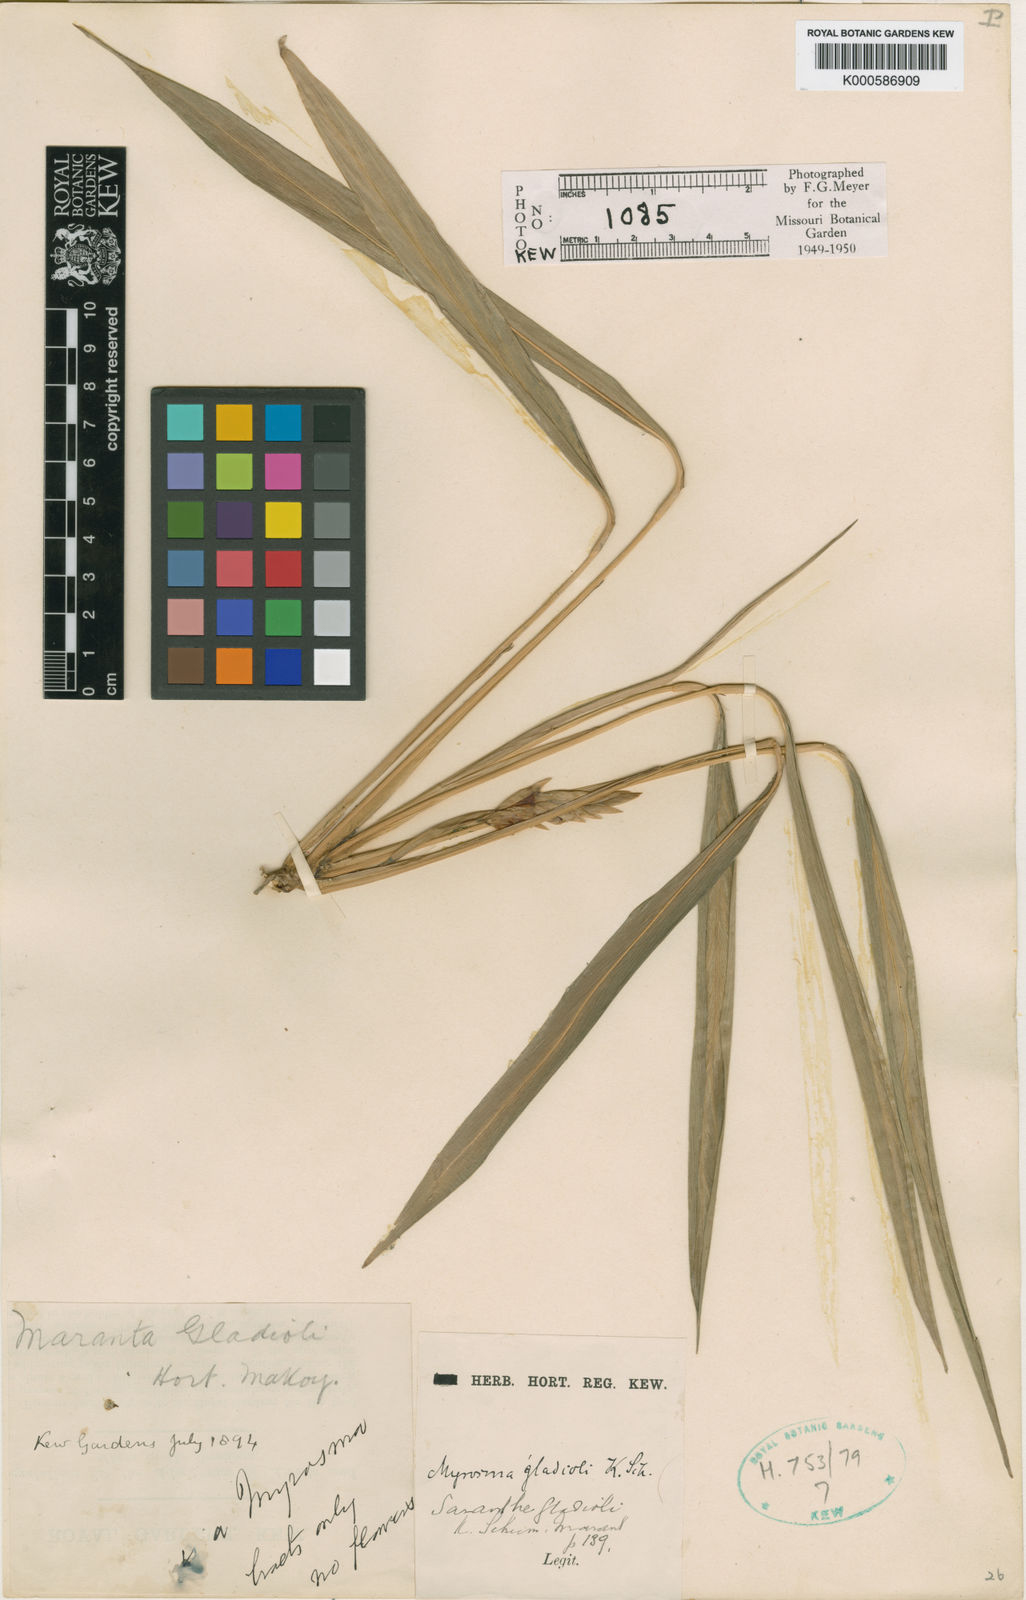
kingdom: Plantae
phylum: Tracheophyta
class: Liliopsida
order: Zingiberales
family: Marantaceae
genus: Saranthe
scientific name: Saranthe gladioli
